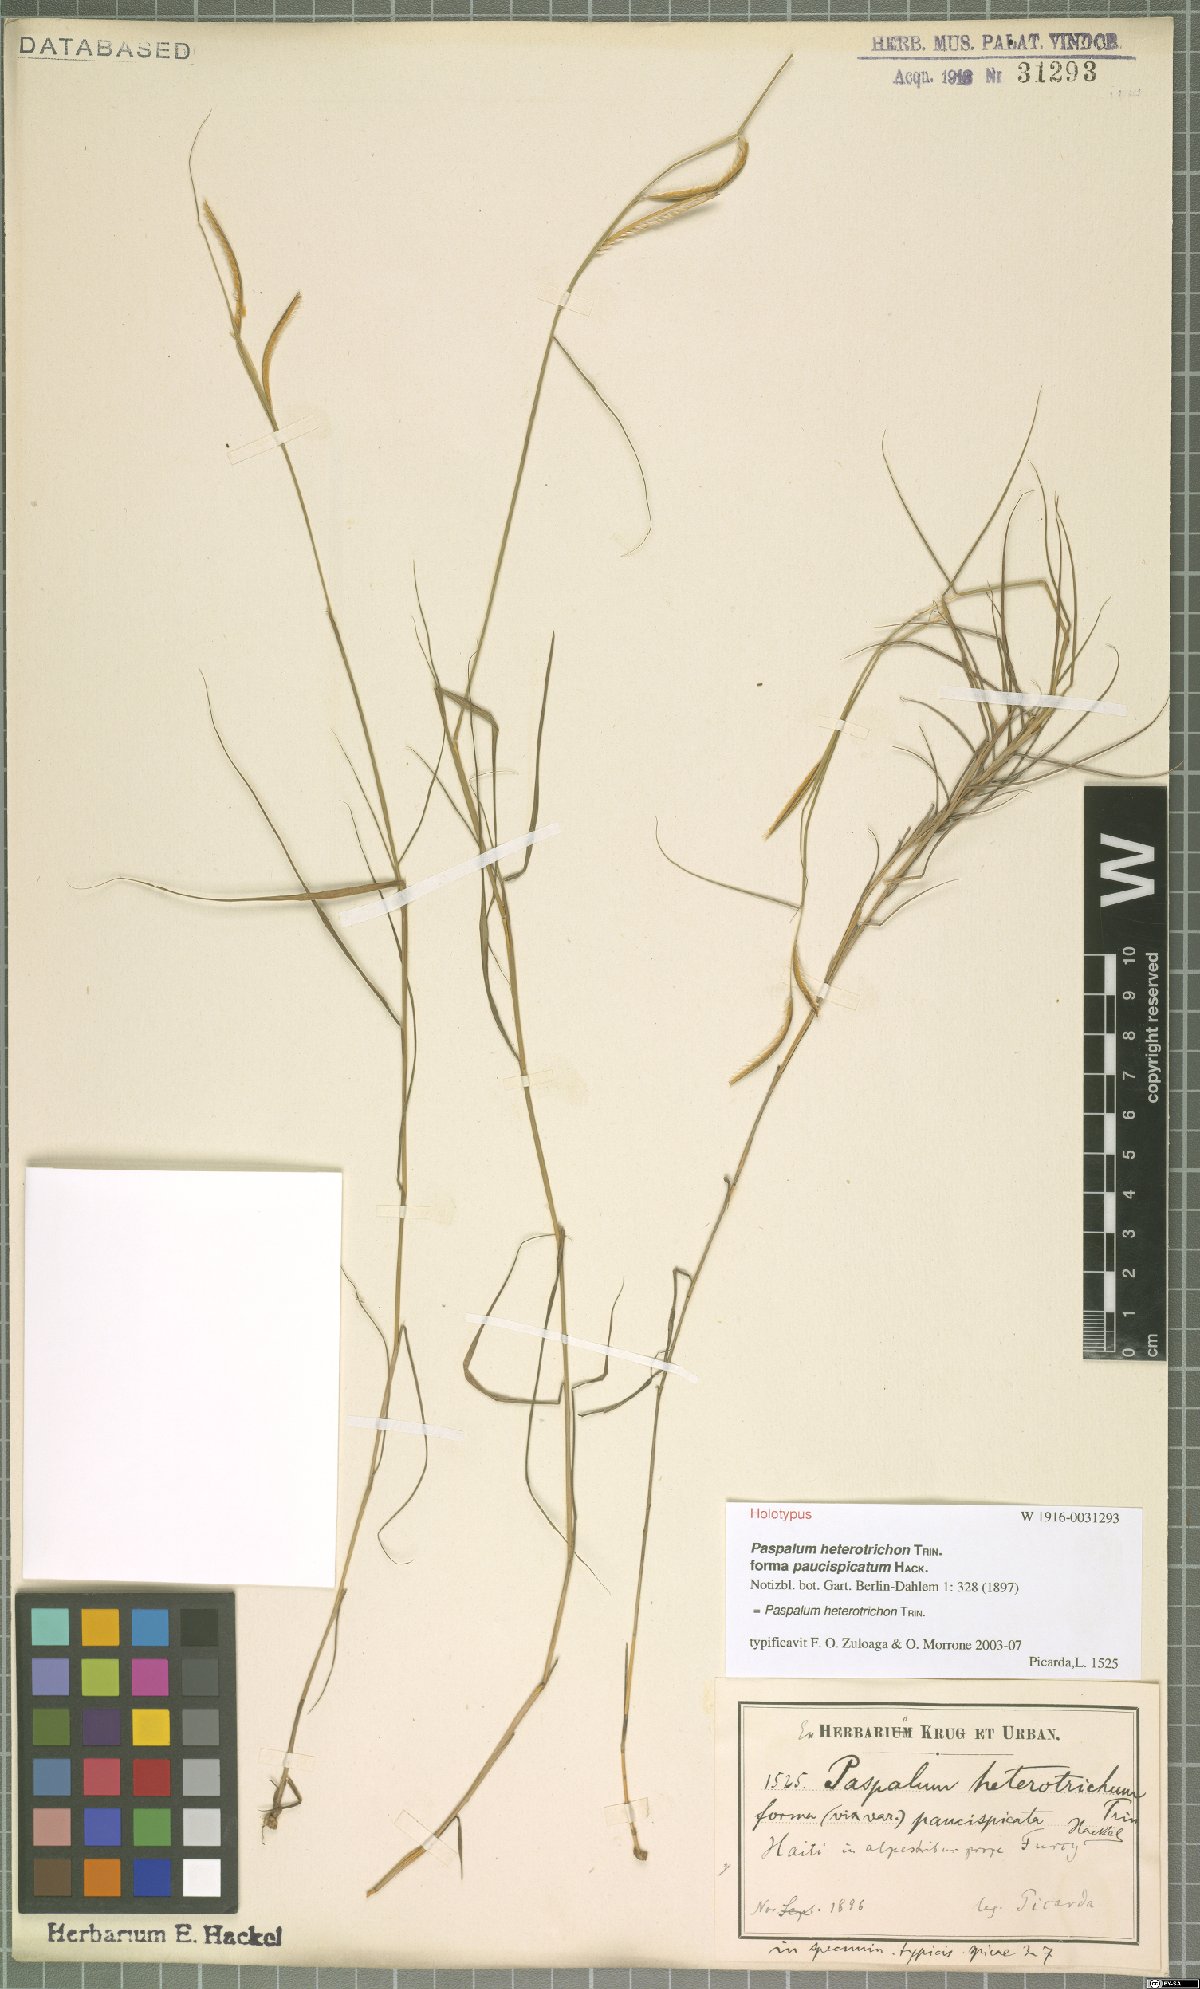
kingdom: Plantae
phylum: Tracheophyta
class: Liliopsida
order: Poales
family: Poaceae
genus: Paspalum
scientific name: Paspalum heterotrichon
